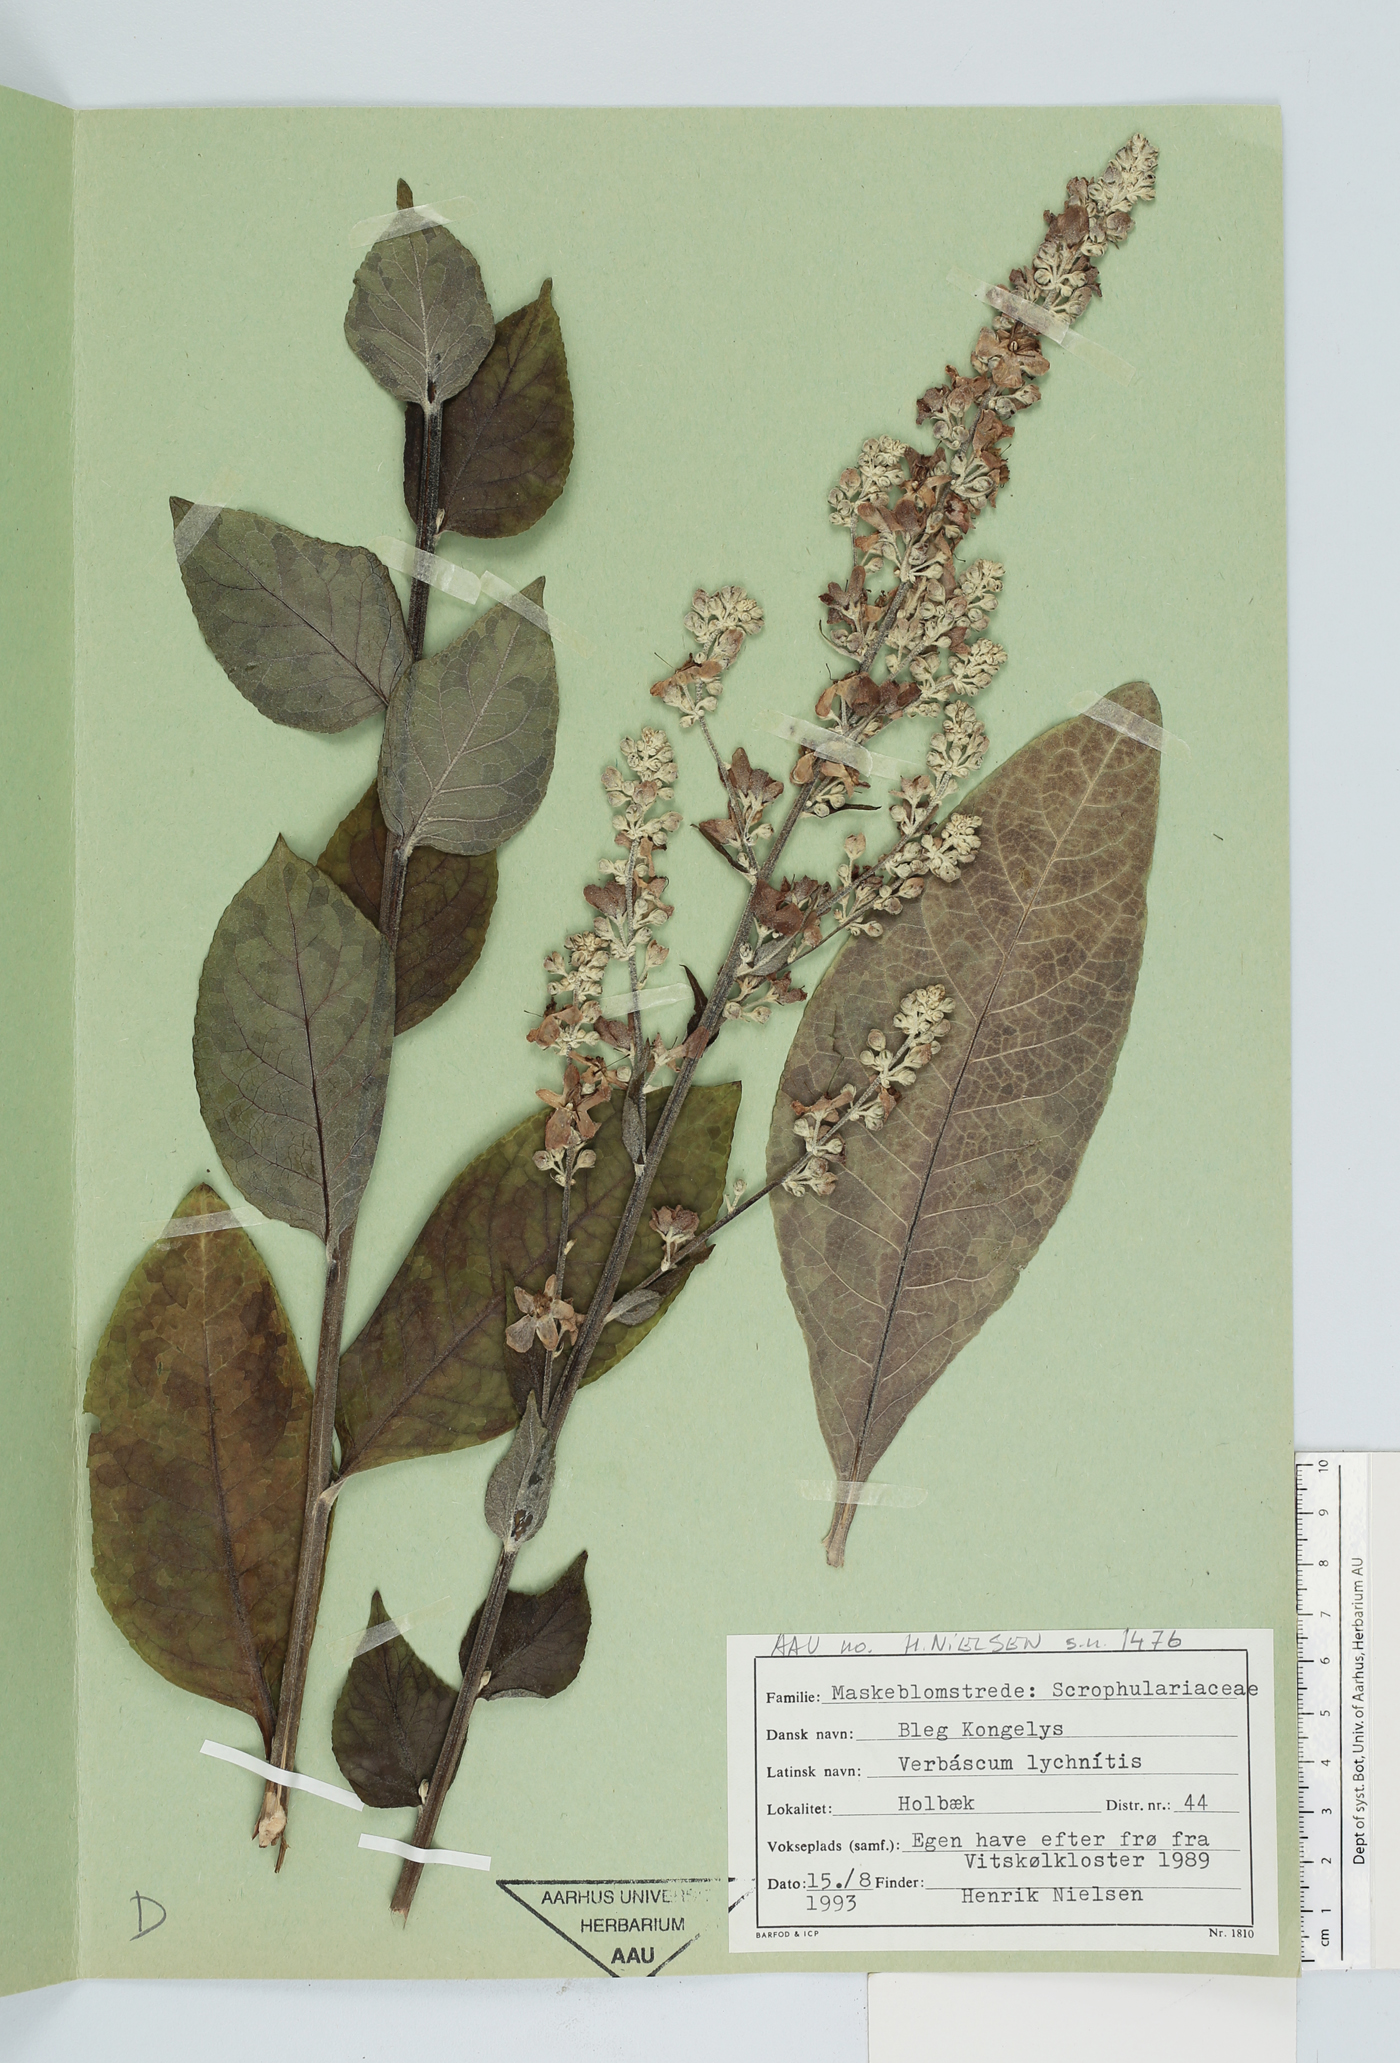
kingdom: Plantae
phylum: Tracheophyta
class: Magnoliopsida
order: Lamiales
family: Scrophulariaceae
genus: Verbascum
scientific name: Verbascum lychnitis
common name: White mullein
